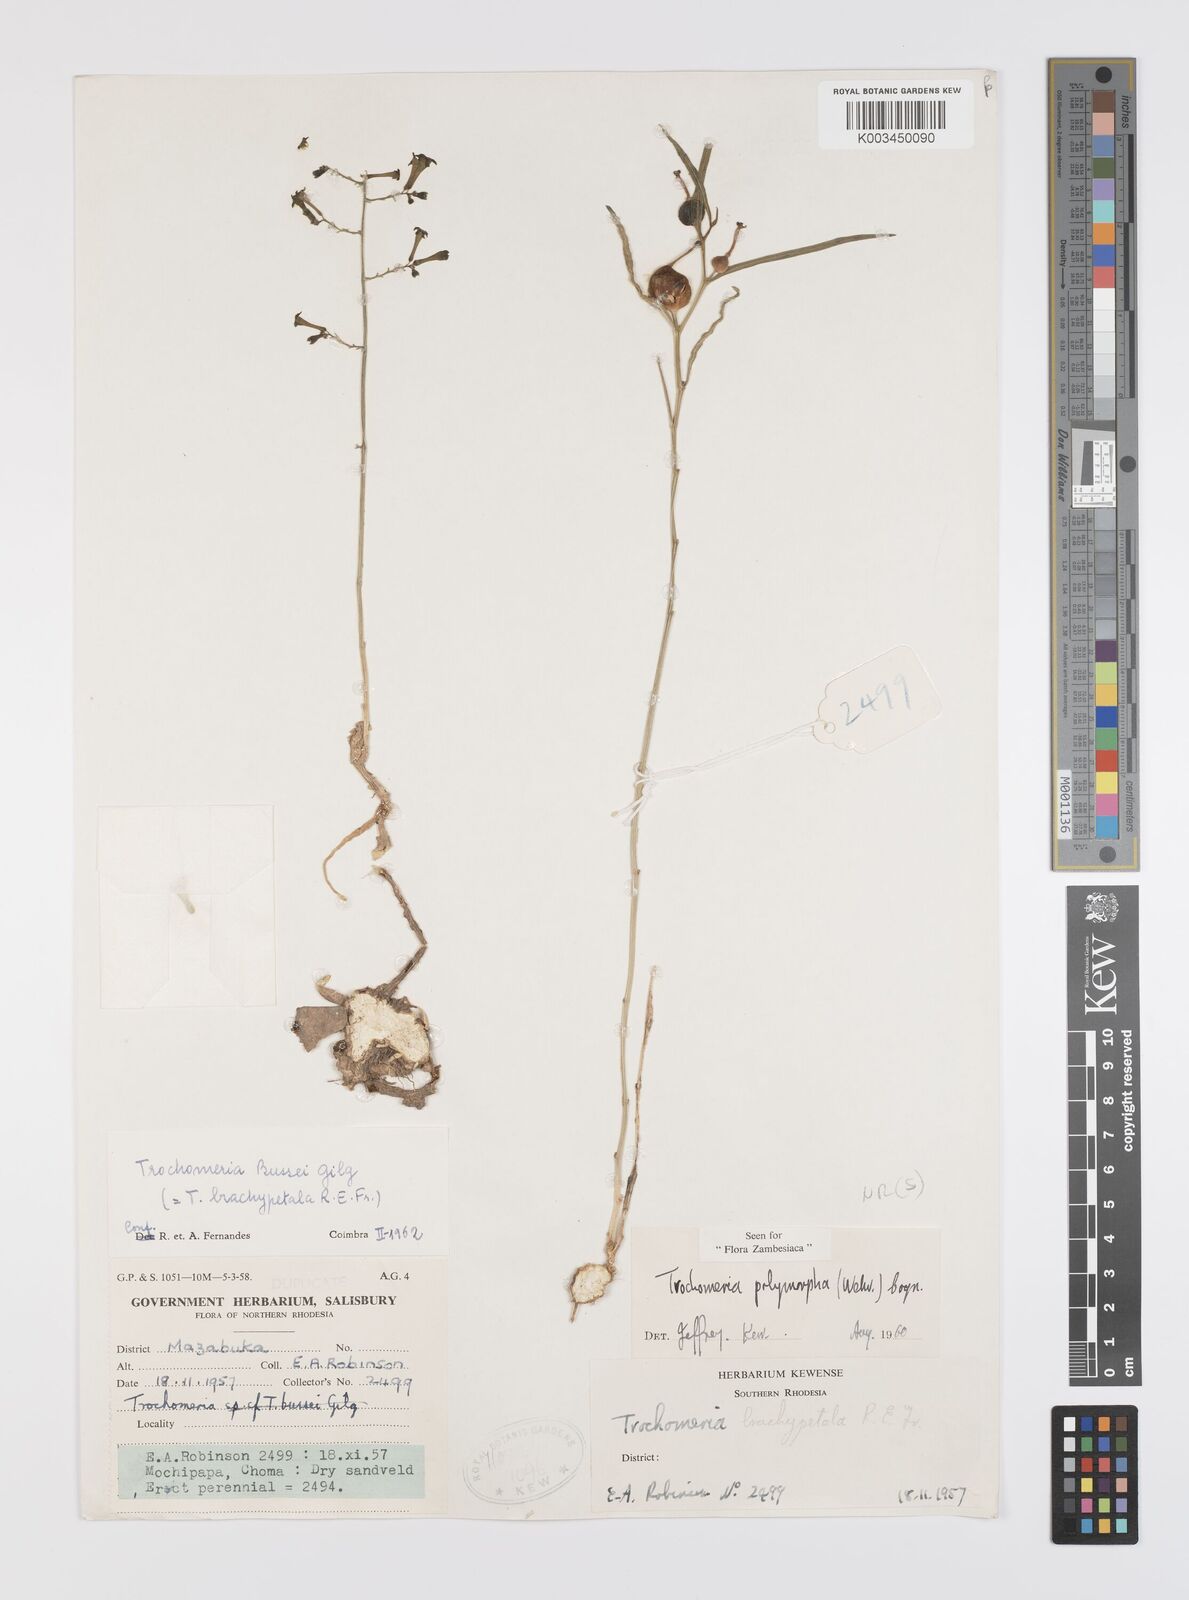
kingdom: Plantae
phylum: Tracheophyta
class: Magnoliopsida
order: Cucurbitales
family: Cucurbitaceae
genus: Trochomeria
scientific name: Trochomeria polymorpha
